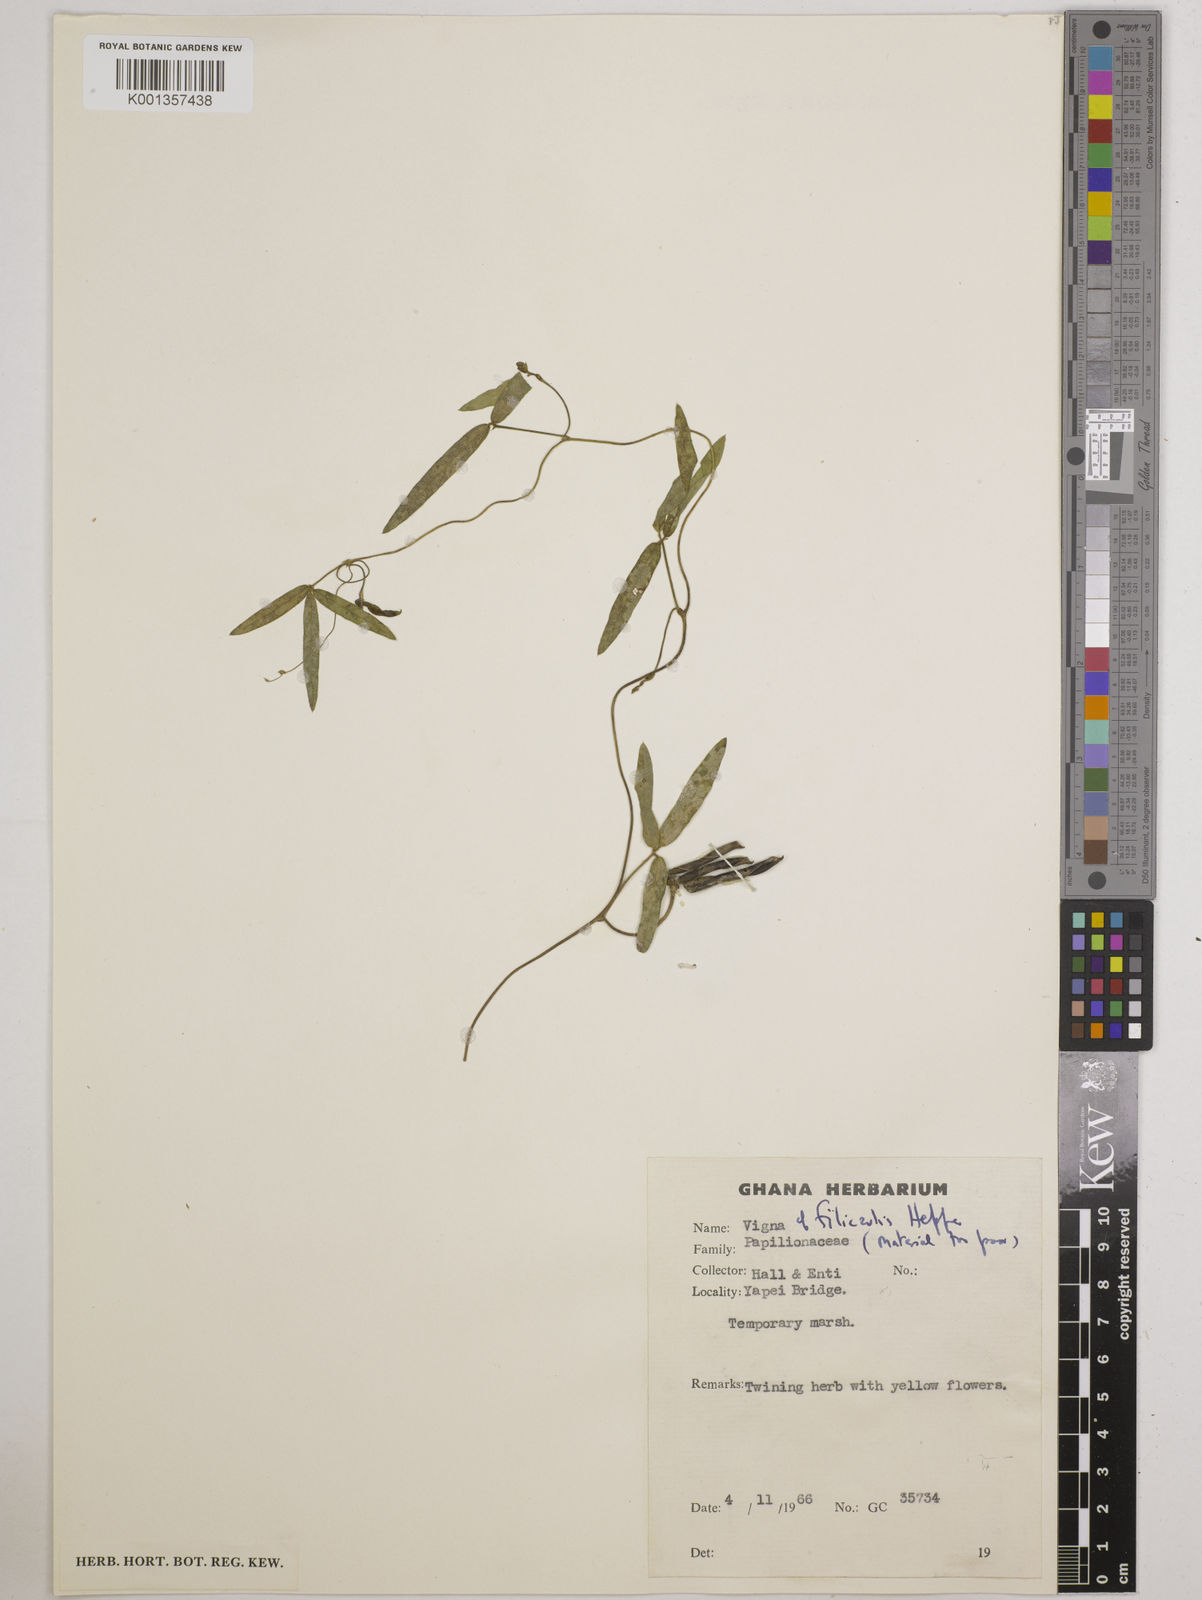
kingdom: Plantae
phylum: Tracheophyta
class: Magnoliopsida
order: Fabales
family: Fabaceae
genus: Vigna
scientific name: Vigna filicaulis
